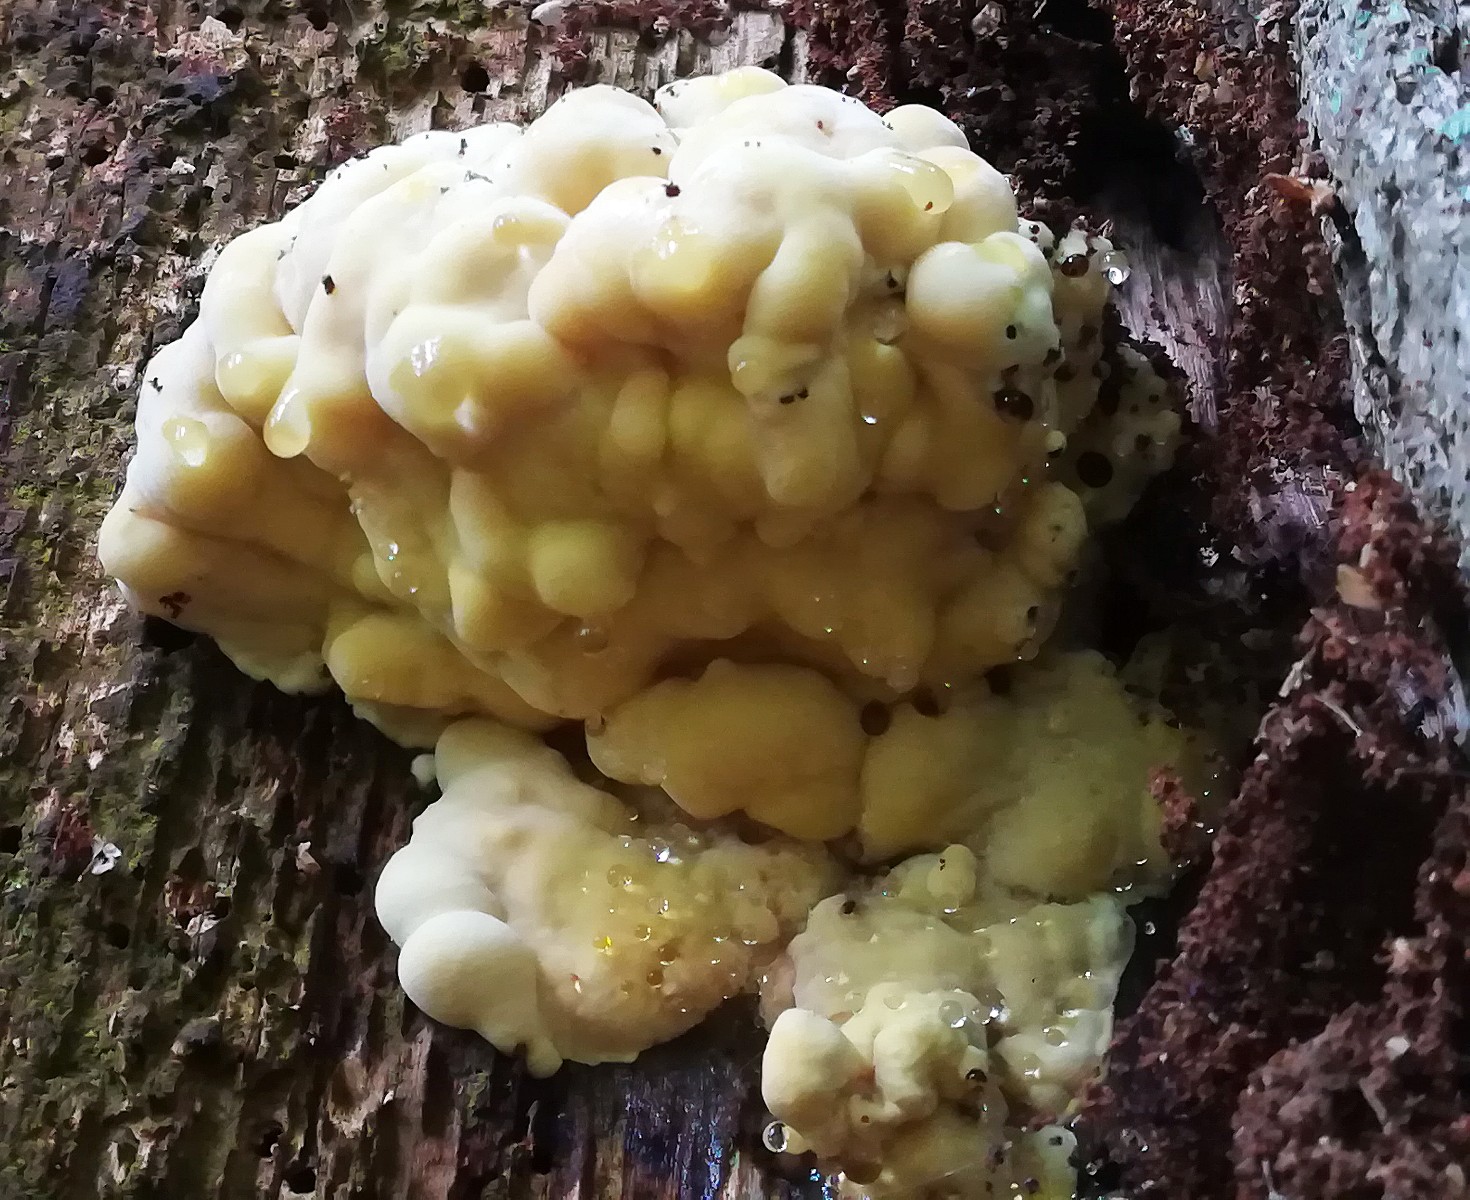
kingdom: Fungi
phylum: Basidiomycota
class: Agaricomycetes
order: Polyporales
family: Laetiporaceae
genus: Laetiporus
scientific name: Laetiporus sulphureus
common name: svovlporesvamp
